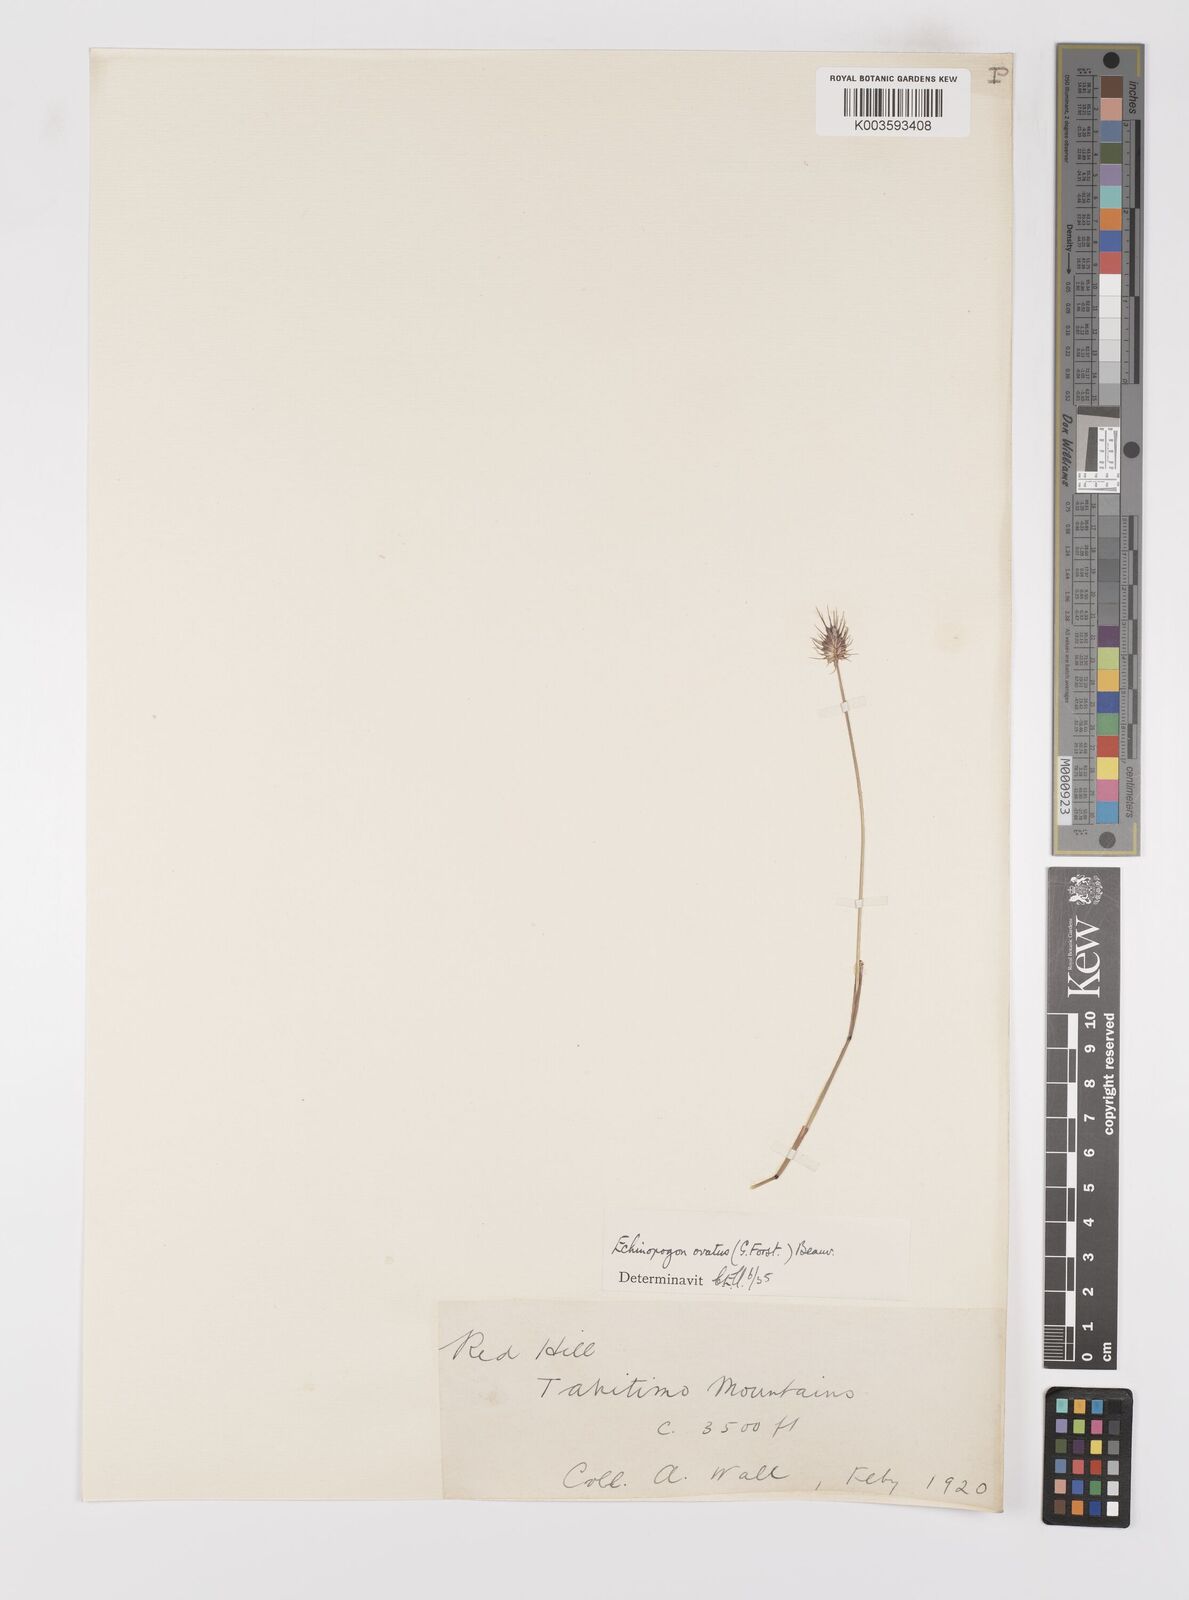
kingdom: Plantae
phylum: Tracheophyta
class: Liliopsida
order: Poales
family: Poaceae
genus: Echinopogon
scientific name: Echinopogon ovatus
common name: Hedgehog-grass
